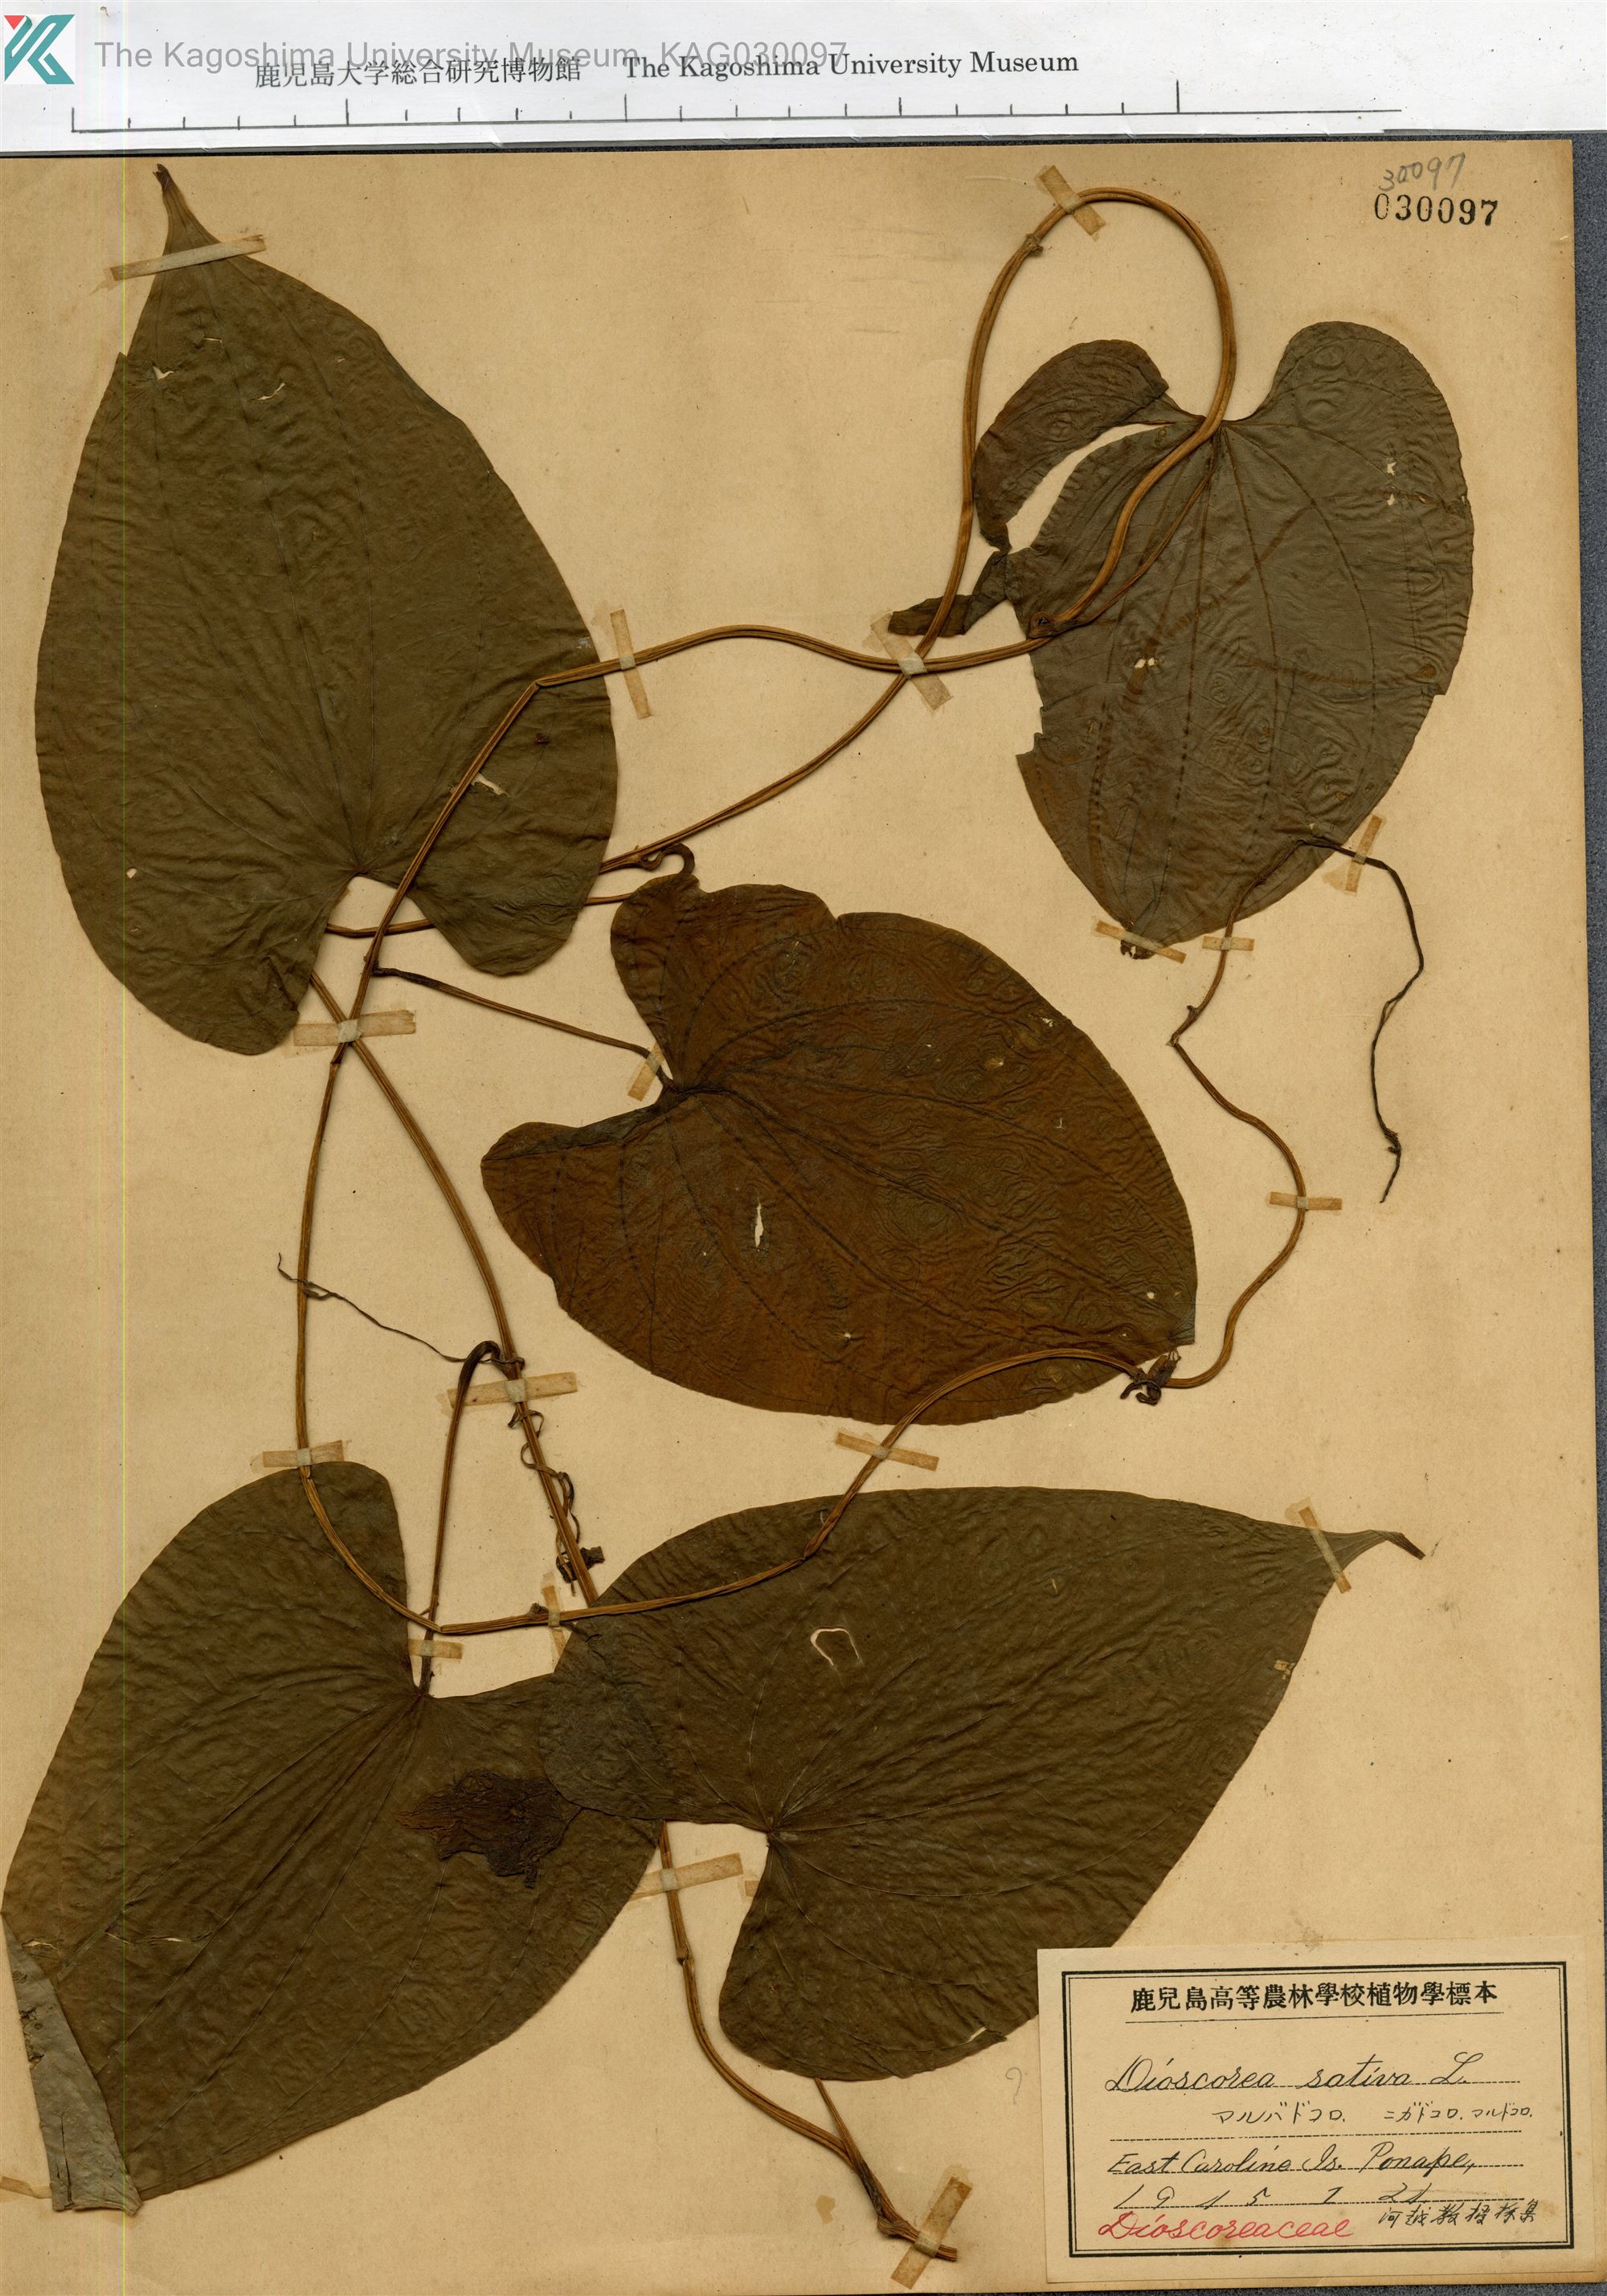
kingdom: Plantae
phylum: Tracheophyta
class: Liliopsida
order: Dioscoreales
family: Dioscoreaceae
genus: Dioscorea
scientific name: Dioscorea bulbifera
